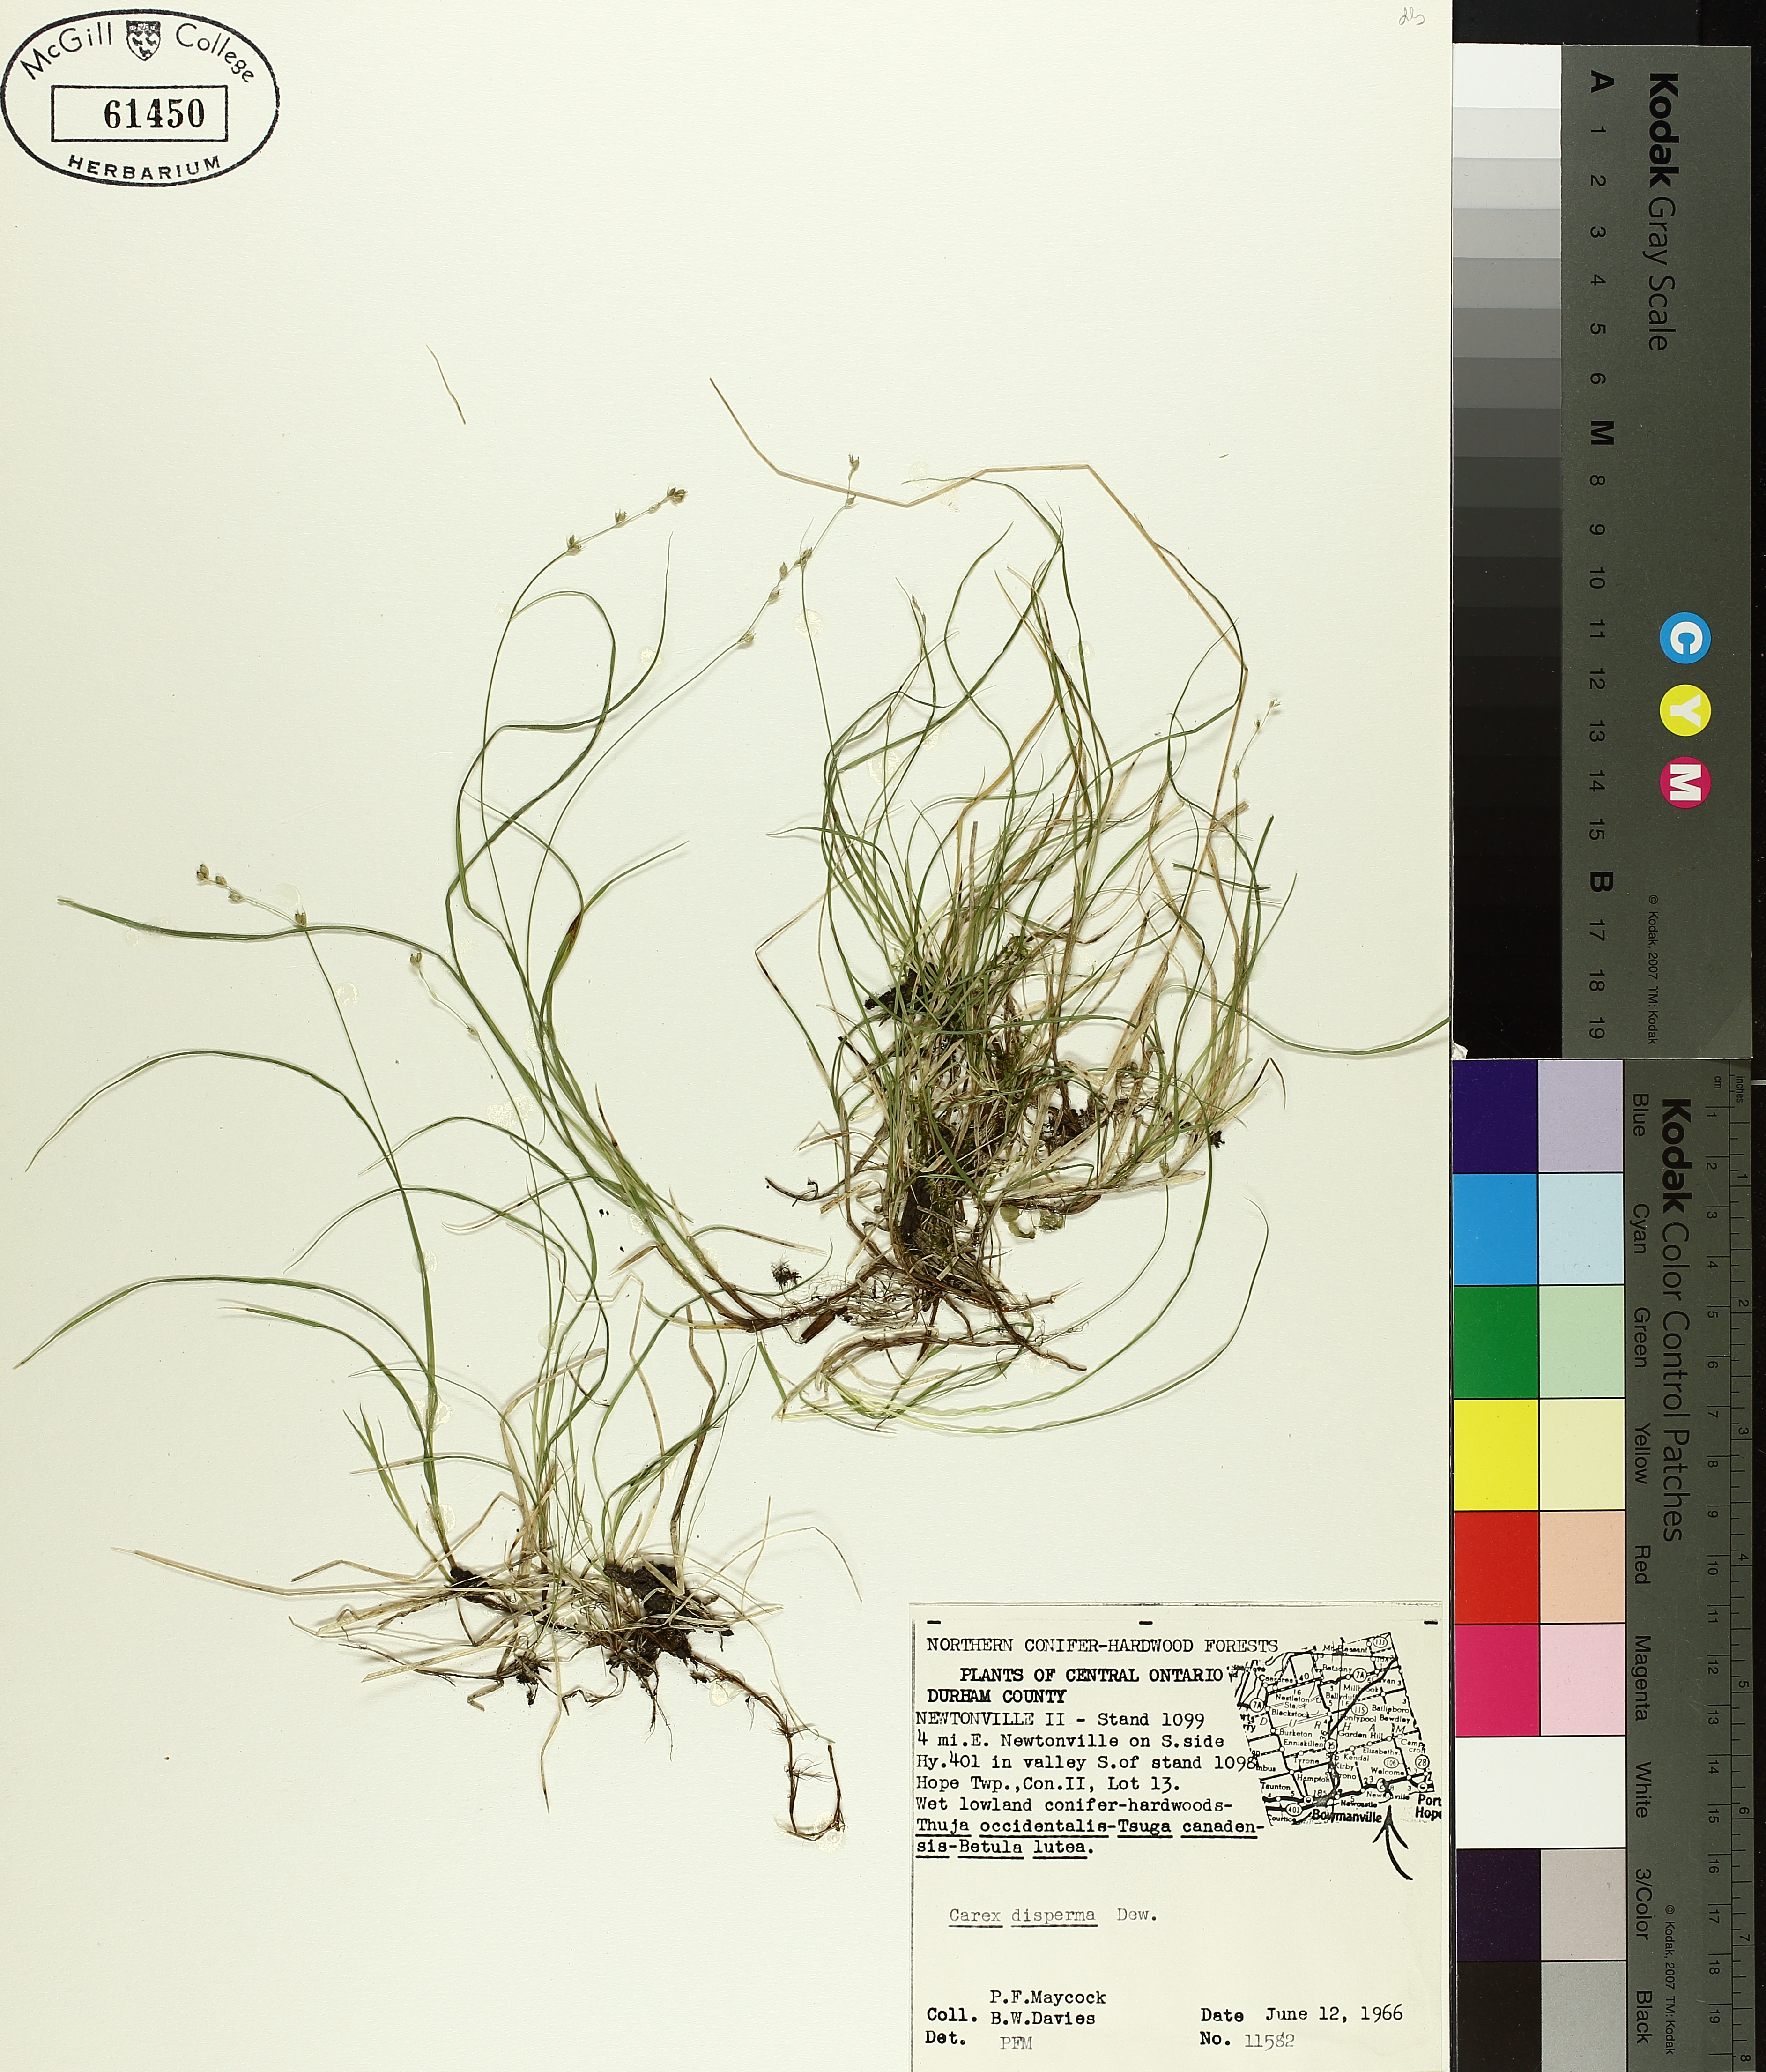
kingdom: Plantae
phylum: Tracheophyta
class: Liliopsida
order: Poales
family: Cyperaceae
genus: Carex
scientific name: Carex disperma
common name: Short-leaved sedge
